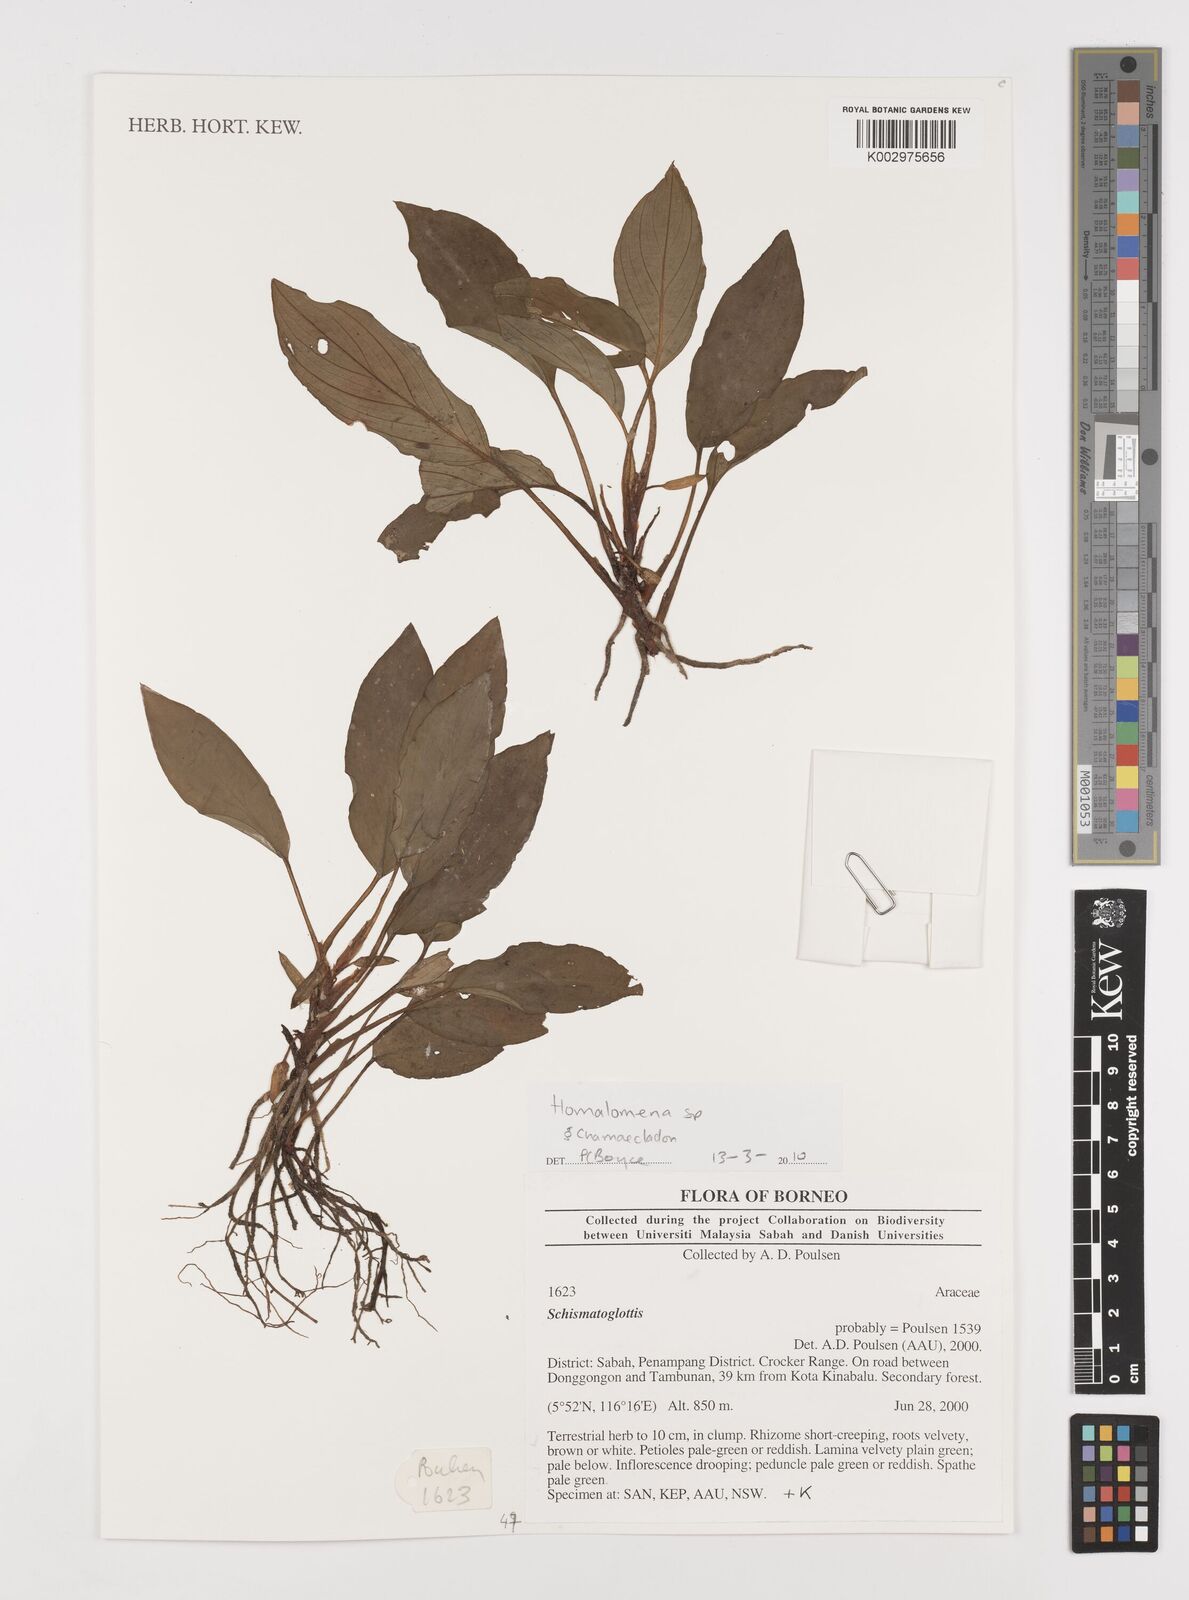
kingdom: Plantae
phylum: Tracheophyta
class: Liliopsida
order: Alismatales
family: Araceae
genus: Homalomena
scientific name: Homalomena
